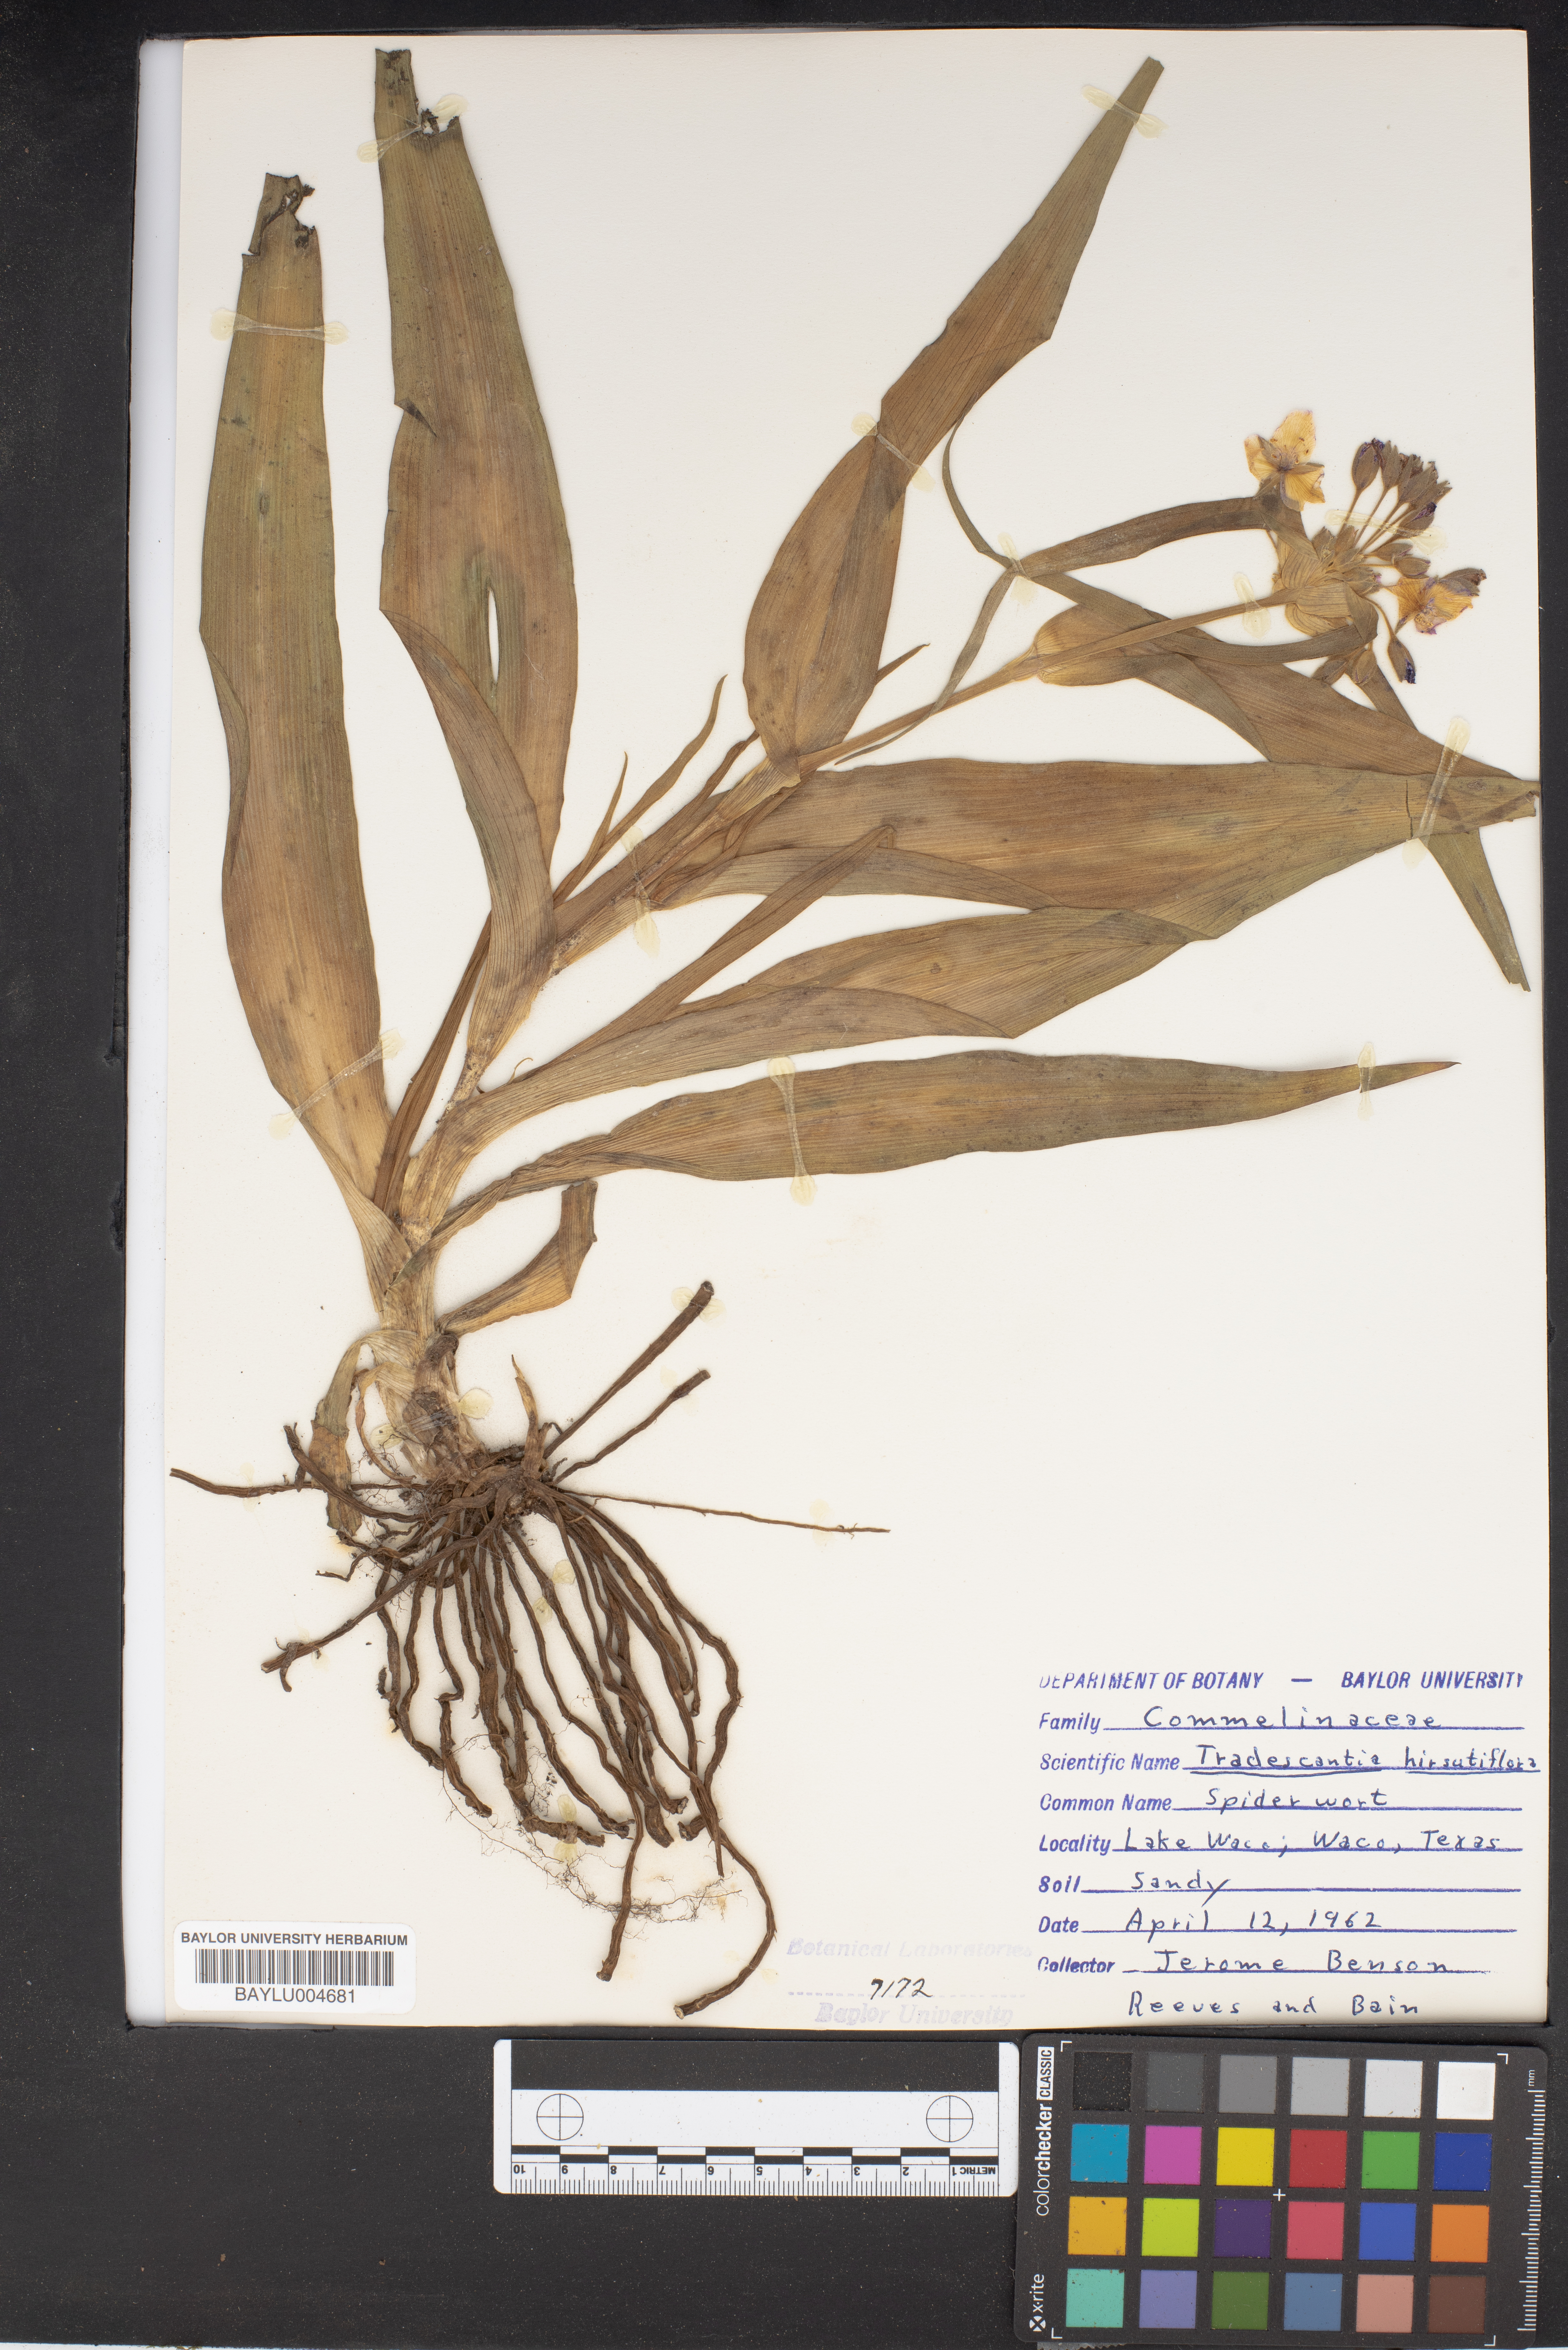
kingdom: Plantae
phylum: Tracheophyta
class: Liliopsida
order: Commelinales
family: Commelinaceae
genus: Tradescantia
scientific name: Tradescantia hirsutiflora
